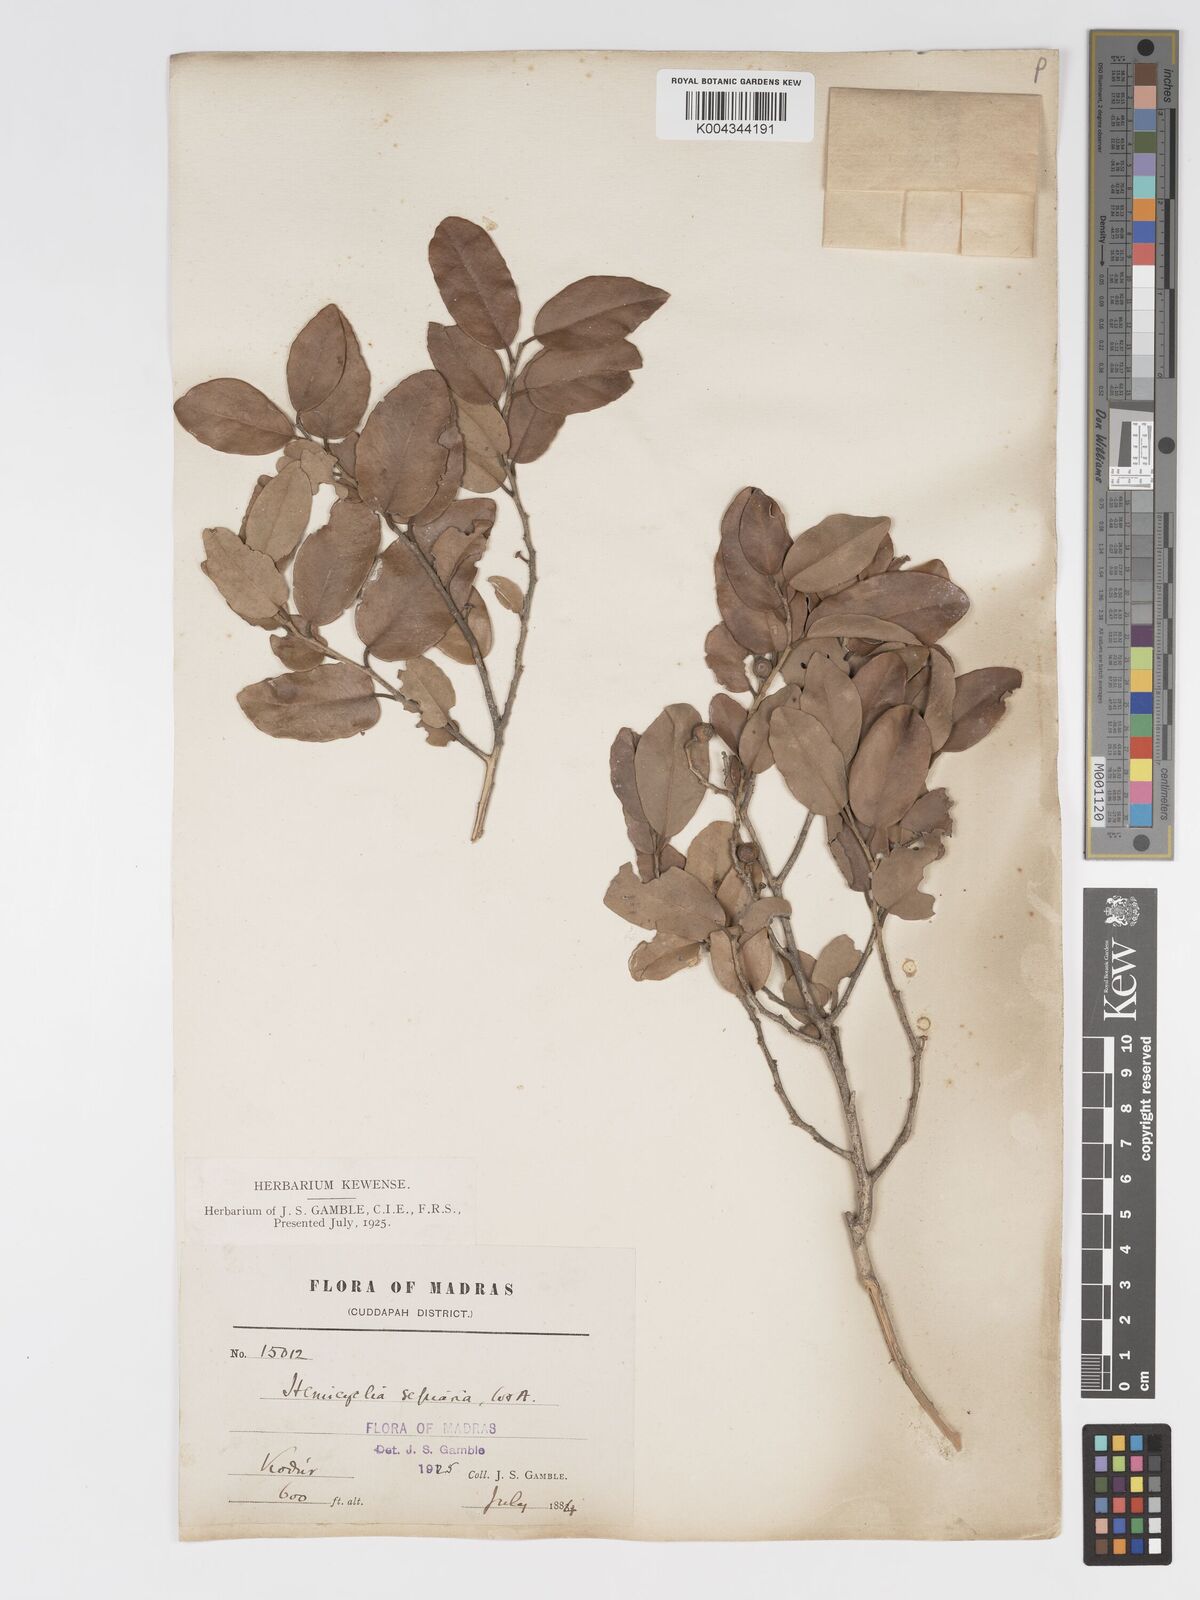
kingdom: Plantae
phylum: Tracheophyta
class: Magnoliopsida
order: Malpighiales
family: Putranjivaceae
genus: Drypetes
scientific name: Drypetes sepiaria
